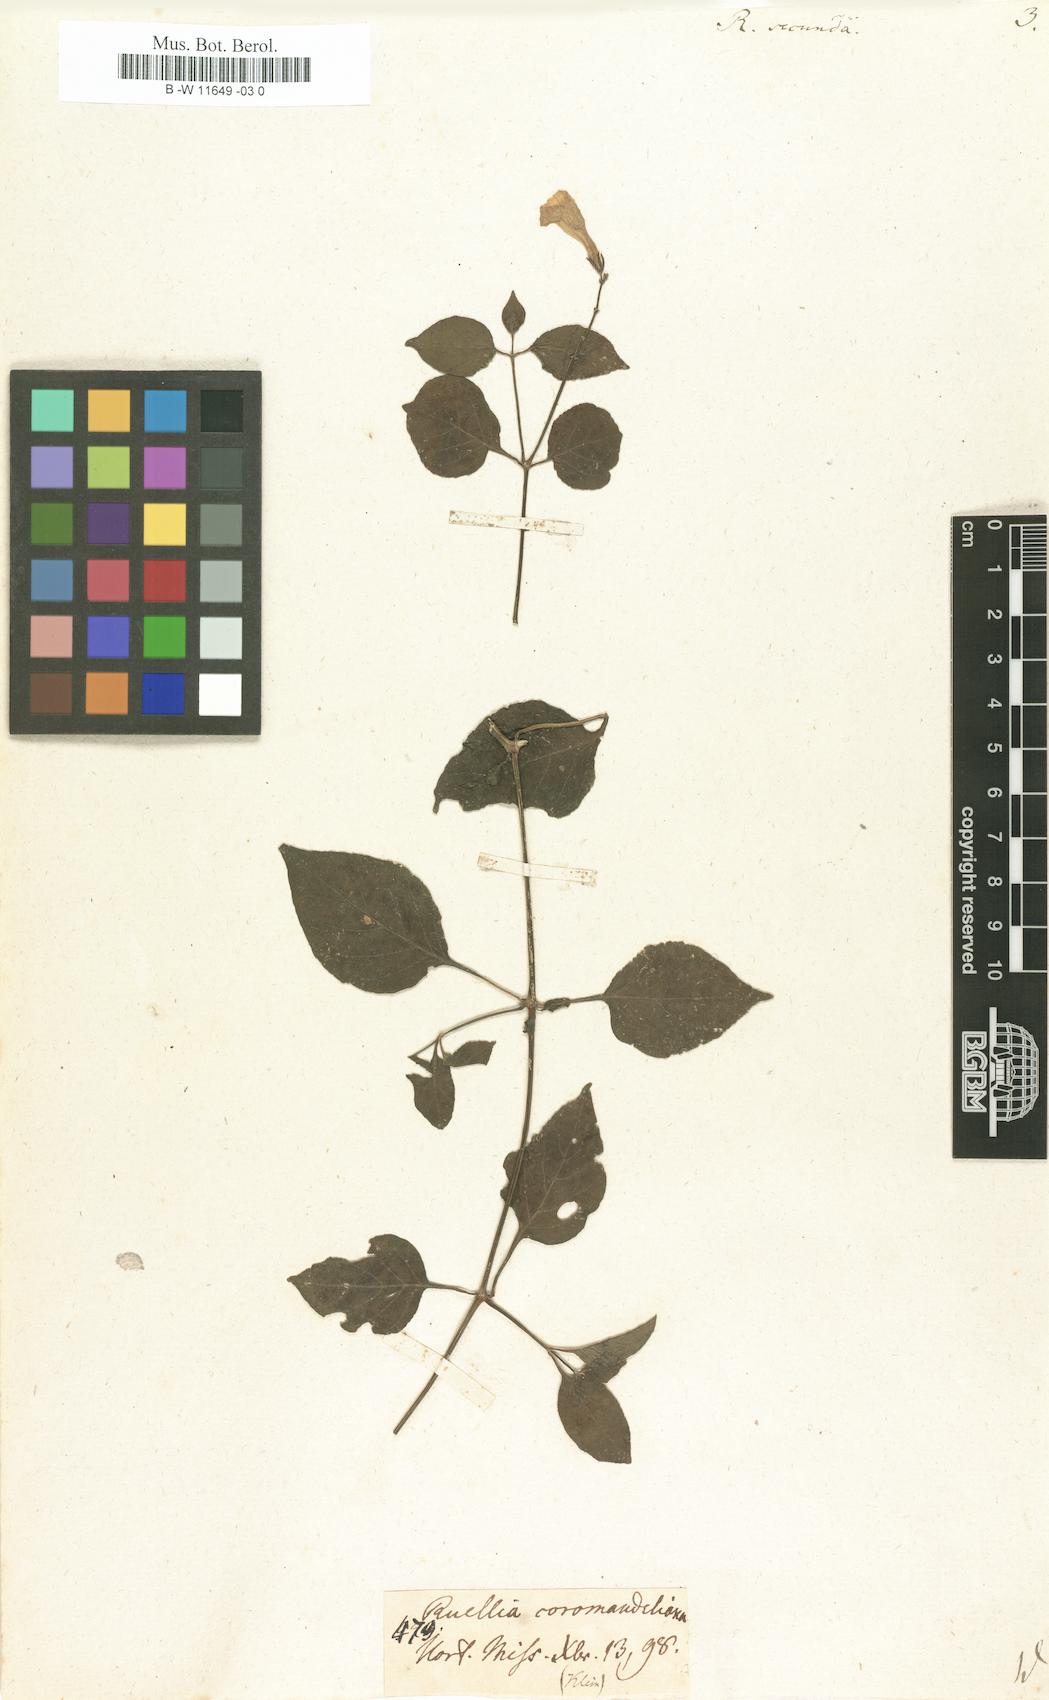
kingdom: Plantae
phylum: Tracheophyta
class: Magnoliopsida
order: Lamiales
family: Acanthaceae
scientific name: Acanthaceae
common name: Acanthaceae
